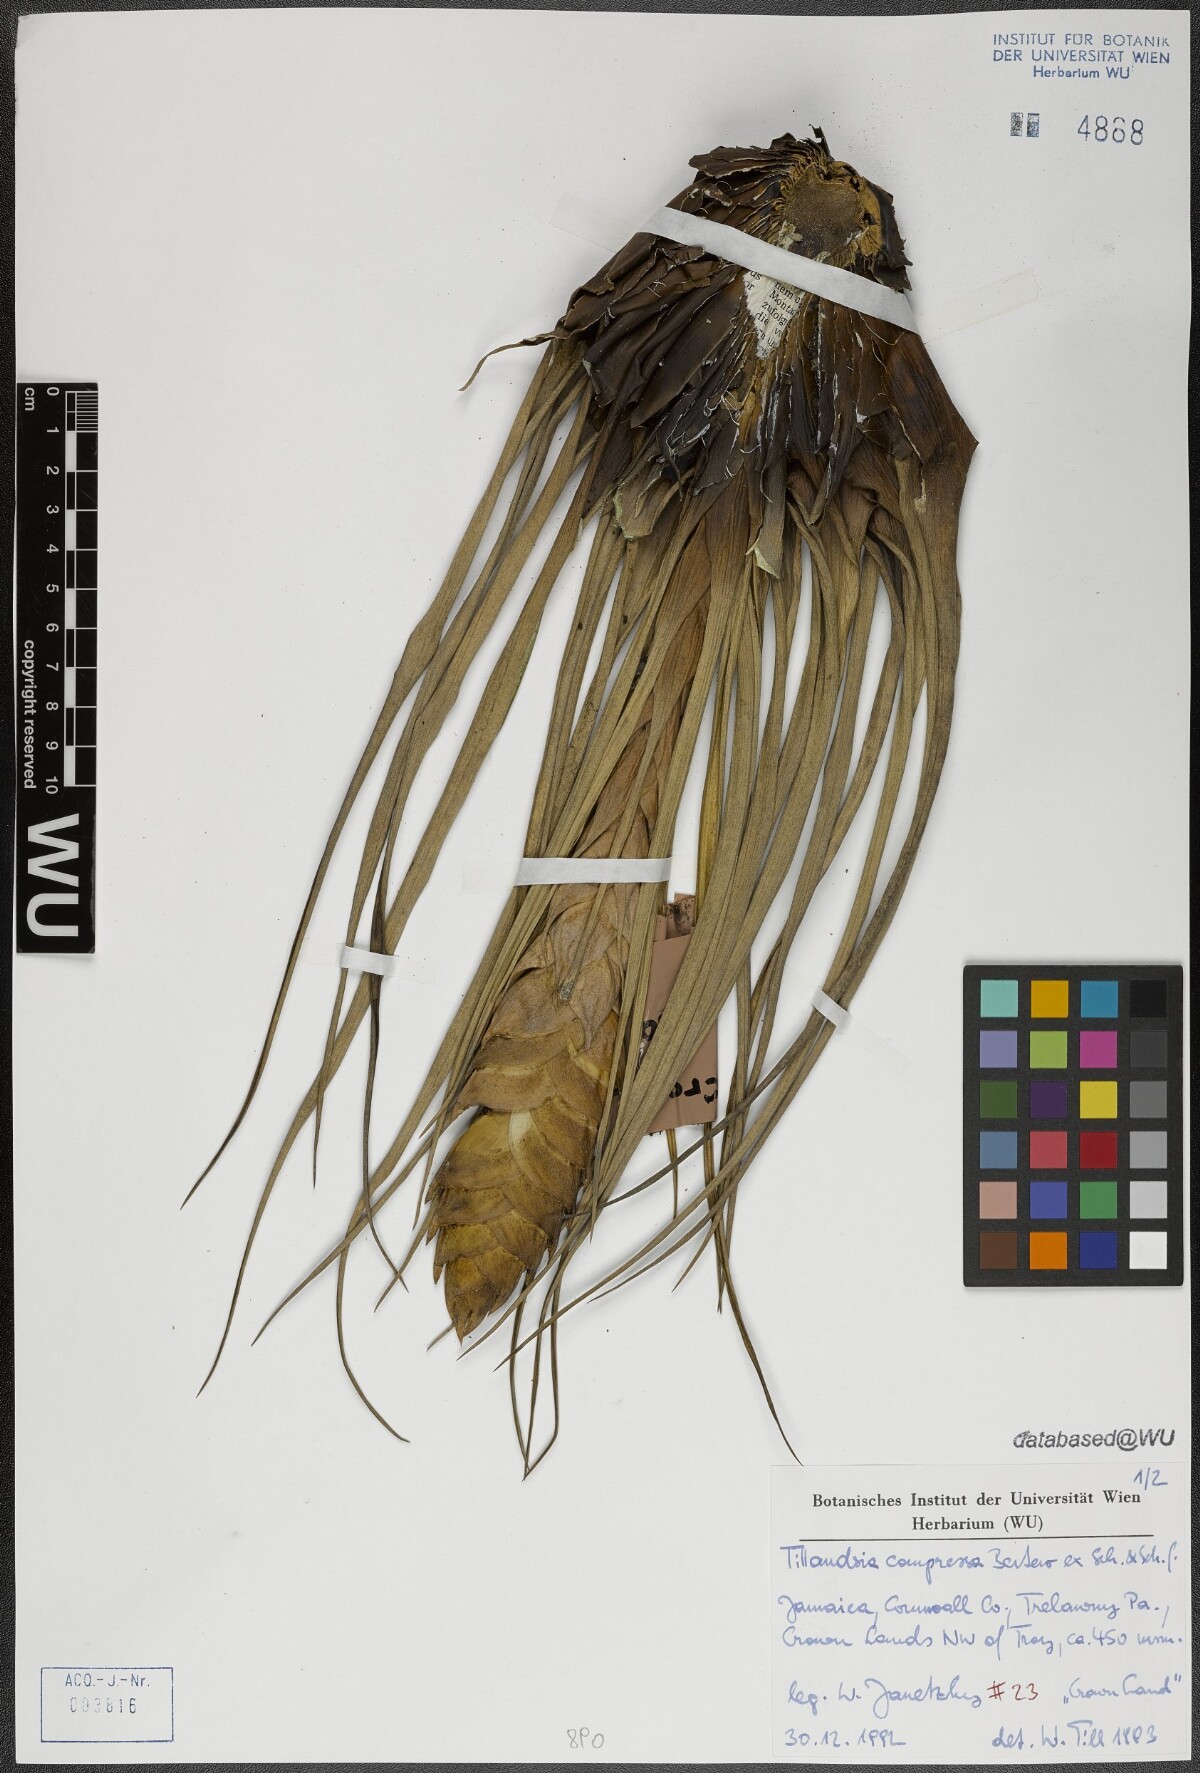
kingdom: Plantae
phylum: Tracheophyta
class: Liliopsida
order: Poales
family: Bromeliaceae
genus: Tillandsia
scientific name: Tillandsia compressa
